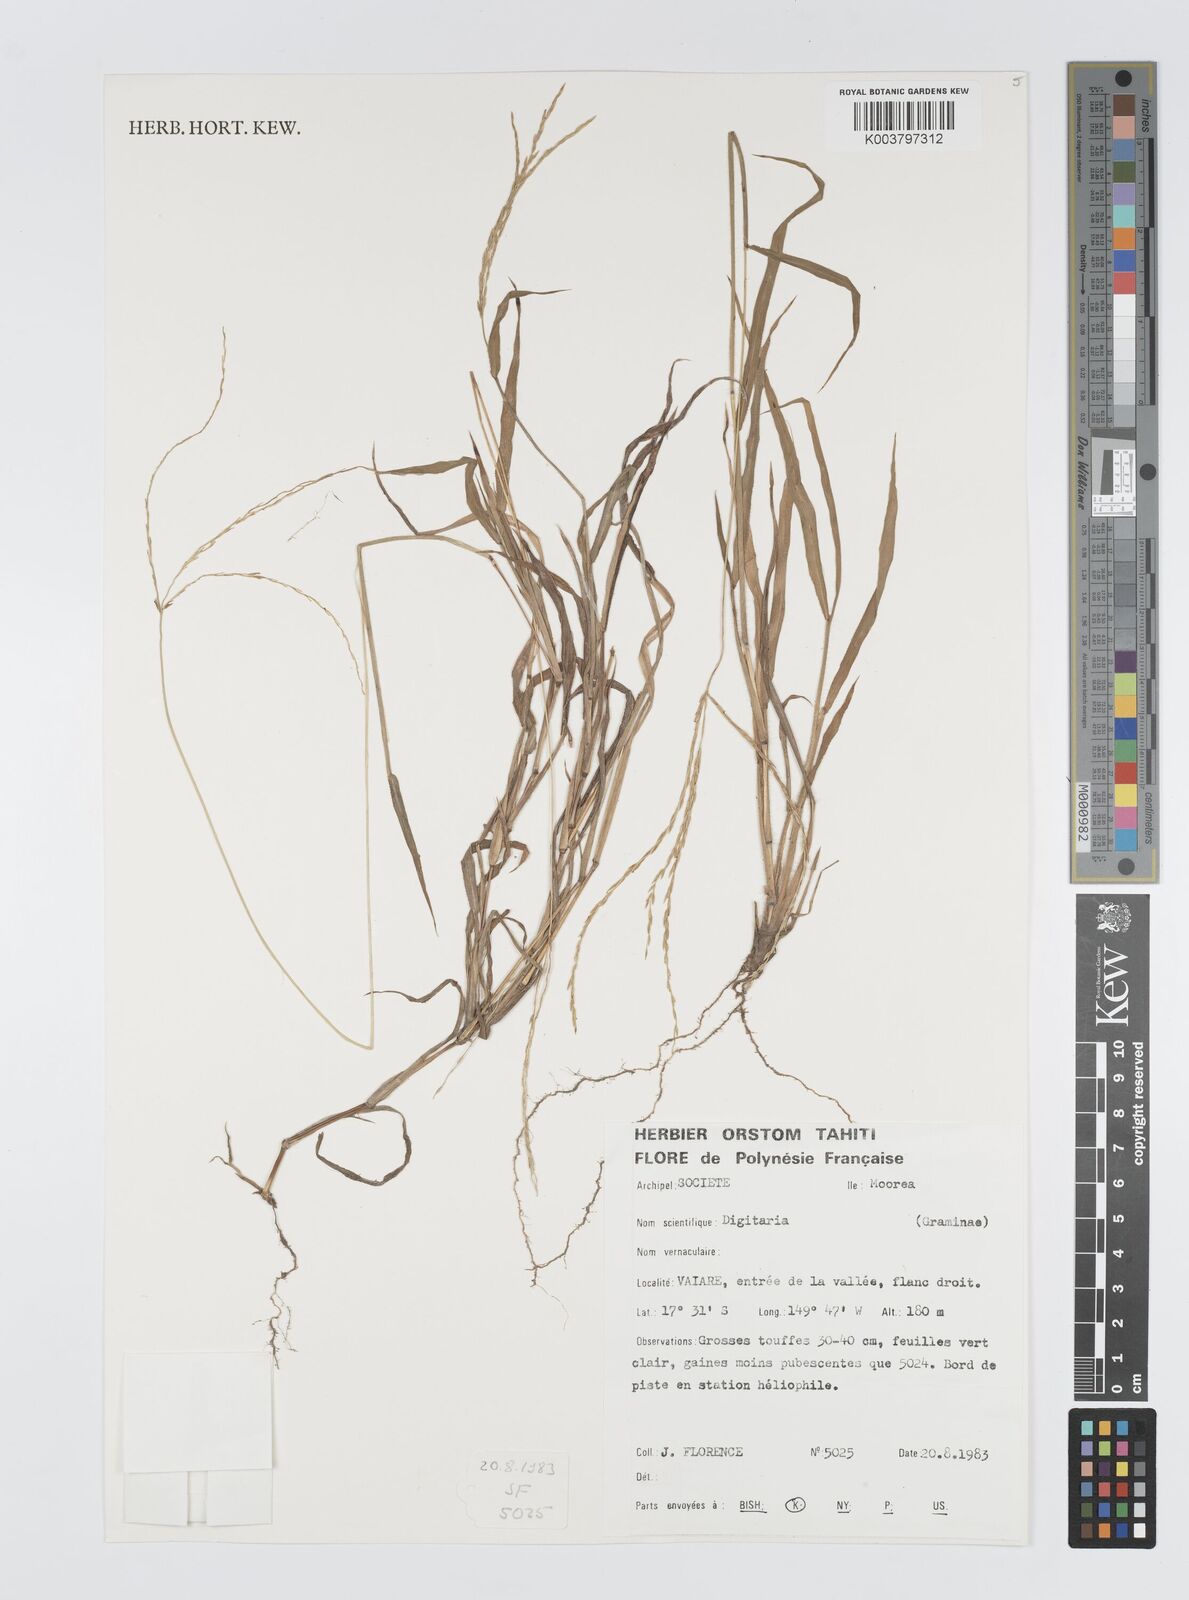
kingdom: Plantae
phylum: Tracheophyta
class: Liliopsida
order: Poales
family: Poaceae
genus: Digitaria
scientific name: Digitaria horizontalis
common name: Jamaican crabgrass
